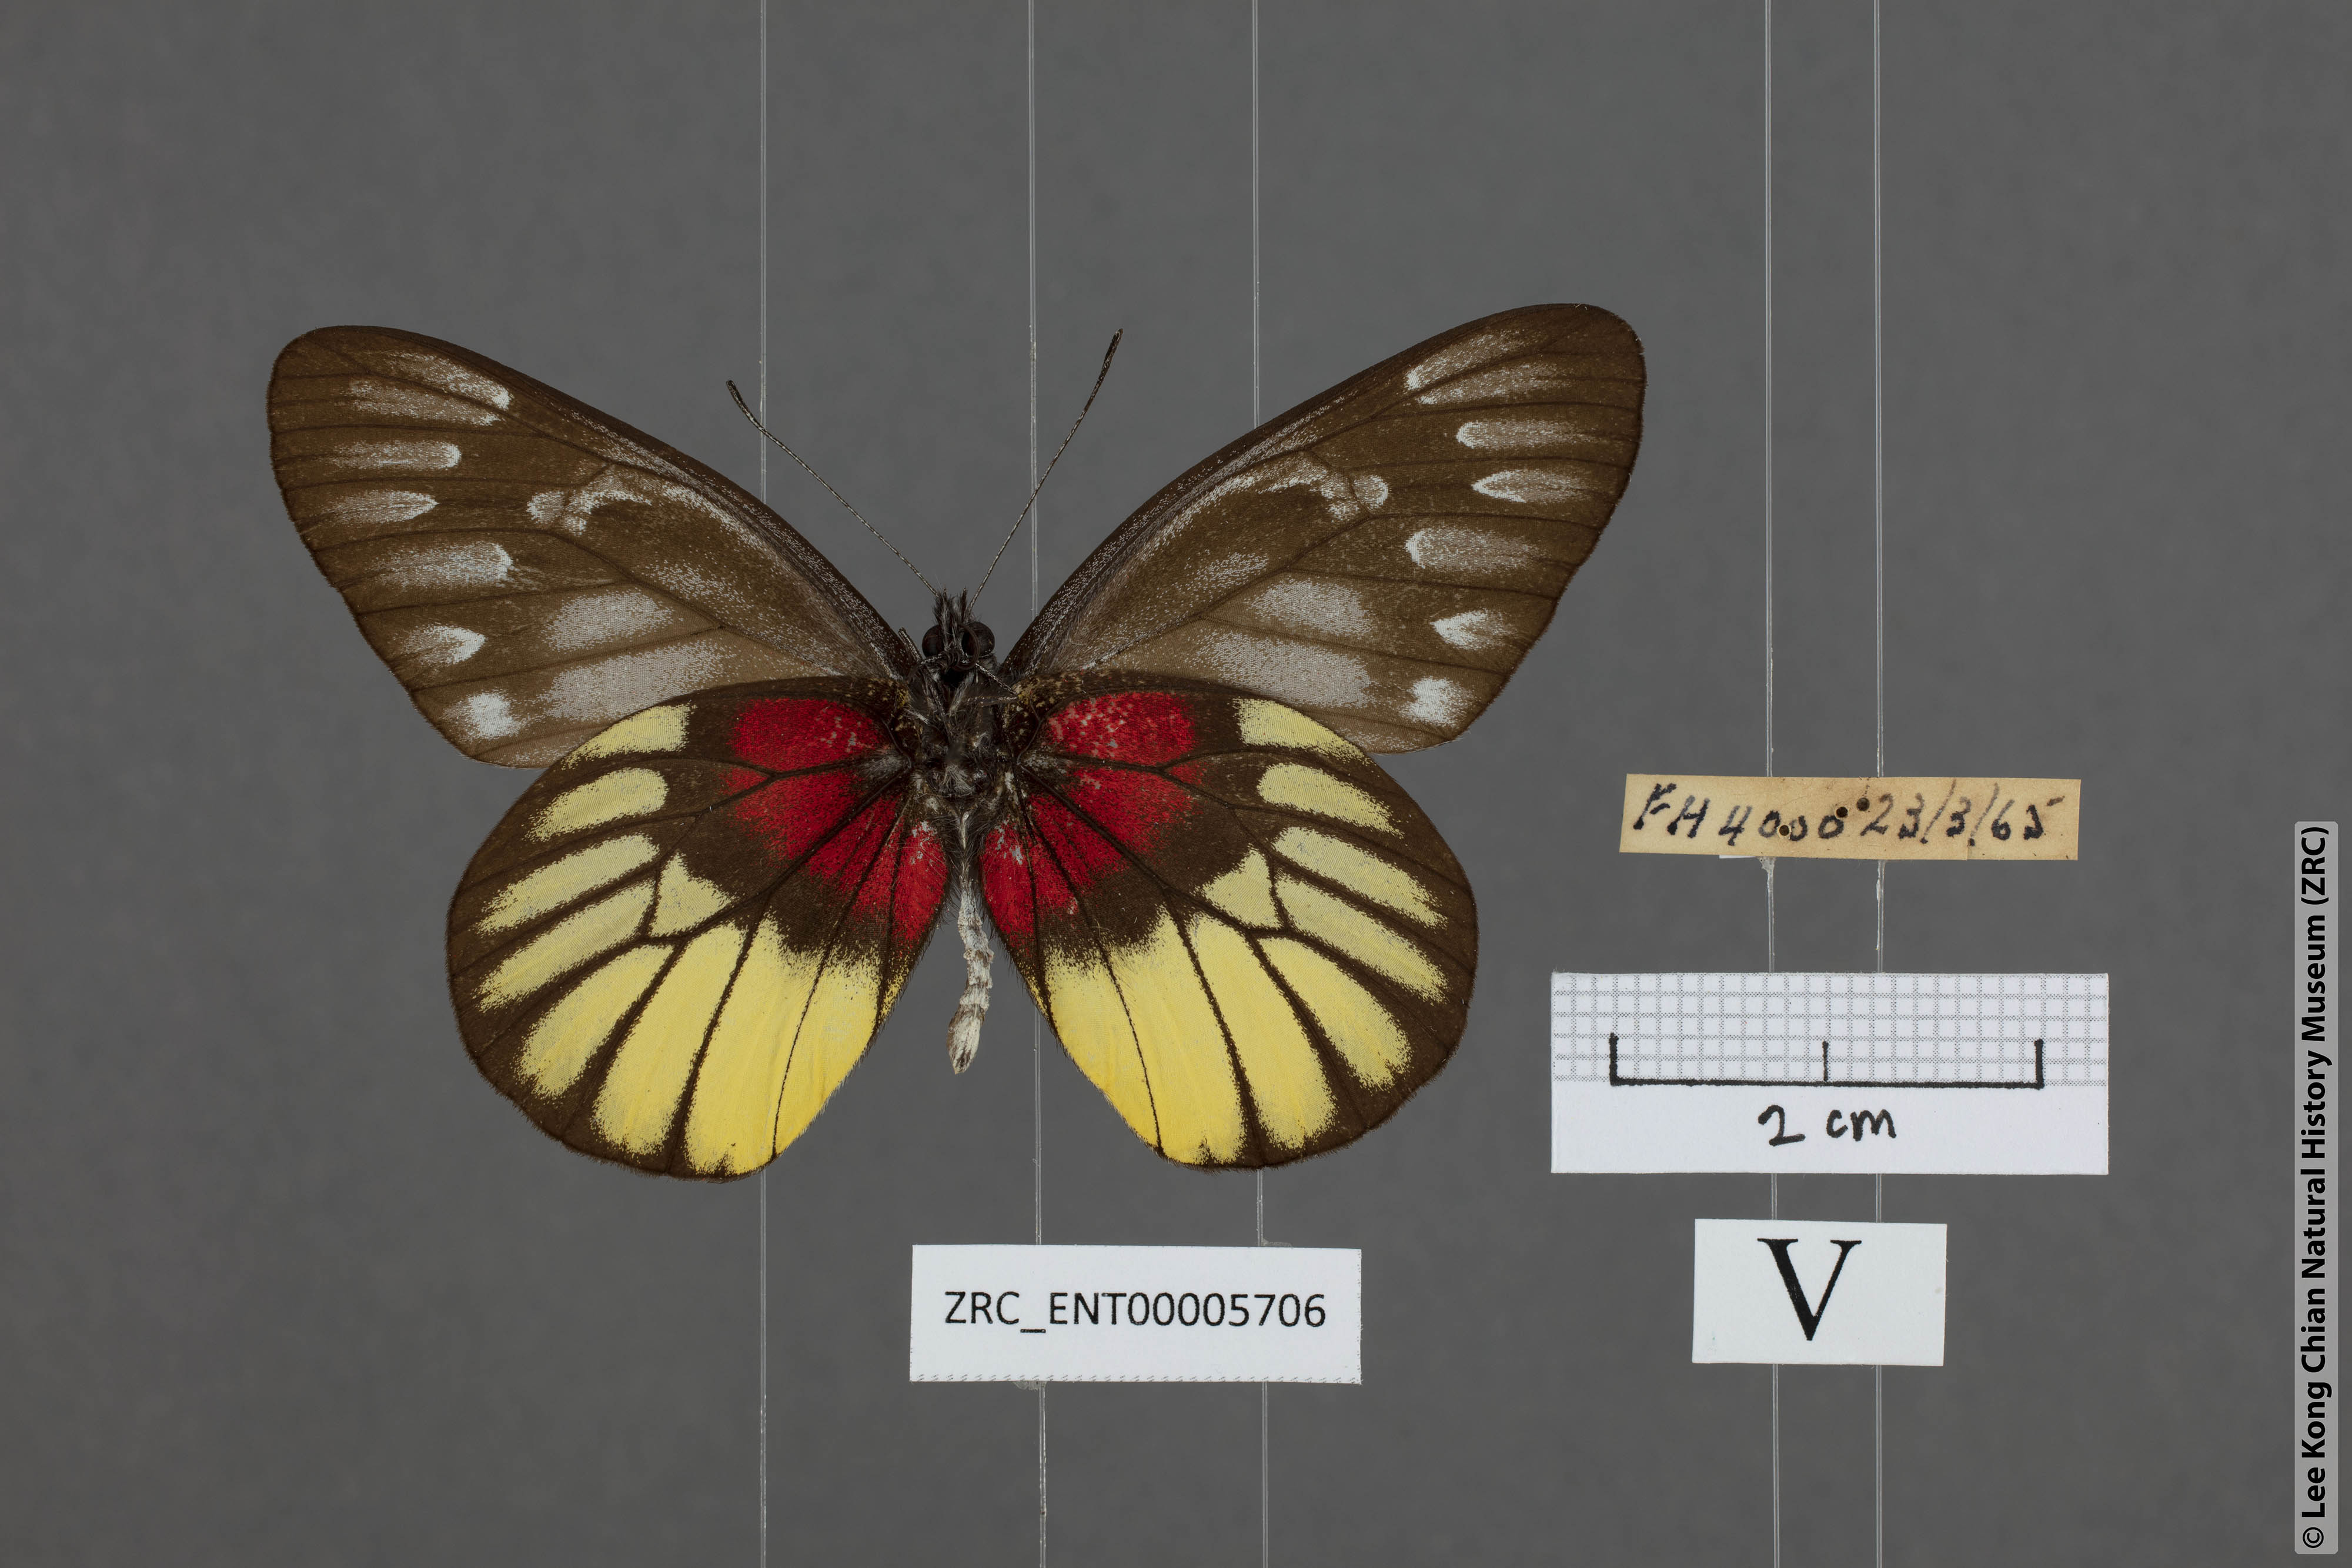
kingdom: Animalia
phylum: Arthropoda
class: Insecta
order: Lepidoptera
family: Pieridae
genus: Delias
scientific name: Delias ninus
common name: Malayan jezebel
